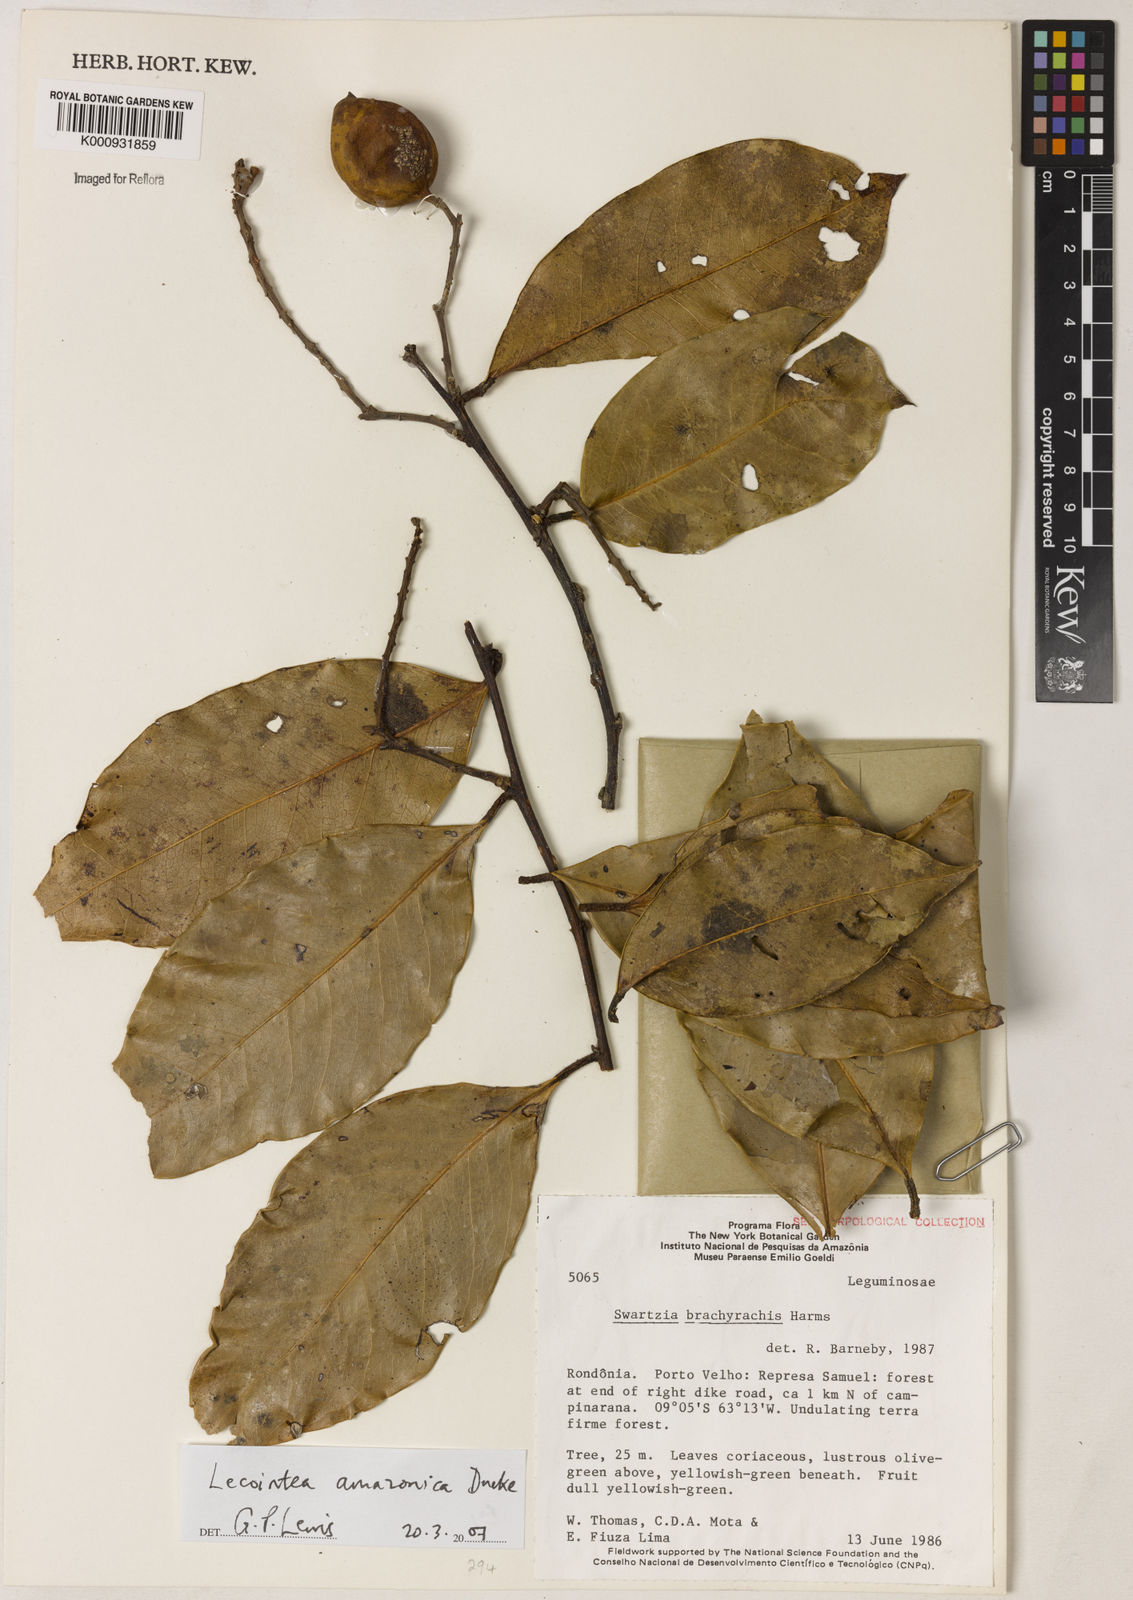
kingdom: Plantae
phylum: Tracheophyta
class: Magnoliopsida
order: Fabales
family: Fabaceae
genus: Lecointea
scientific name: Lecointea amazonica
